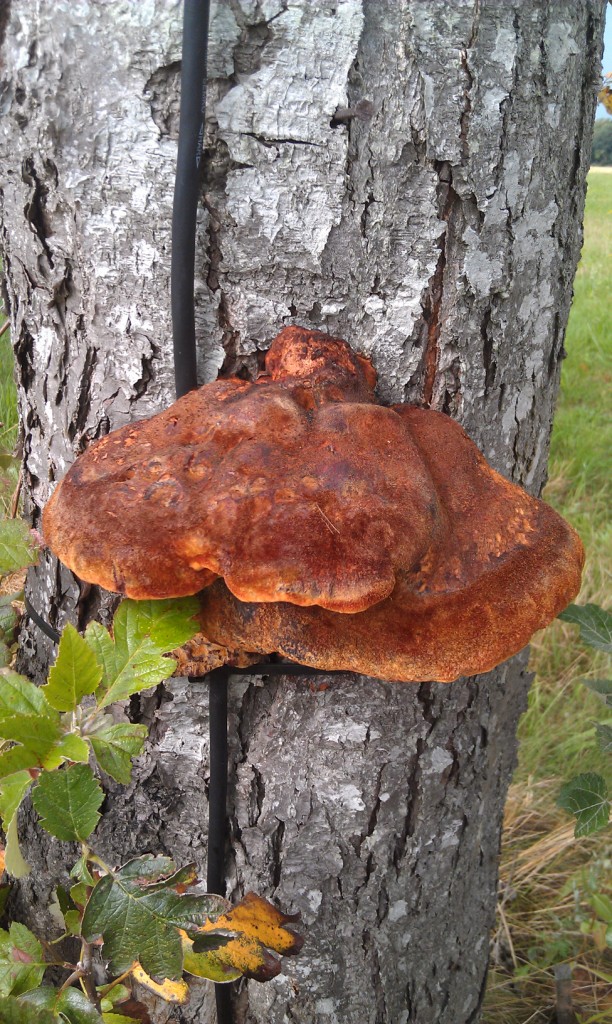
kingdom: Fungi
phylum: Basidiomycota
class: Agaricomycetes
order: Hymenochaetales
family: Hymenochaetaceae
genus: Inonotus
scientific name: Inonotus hispidus
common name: børstehåret spejlporesvamp
